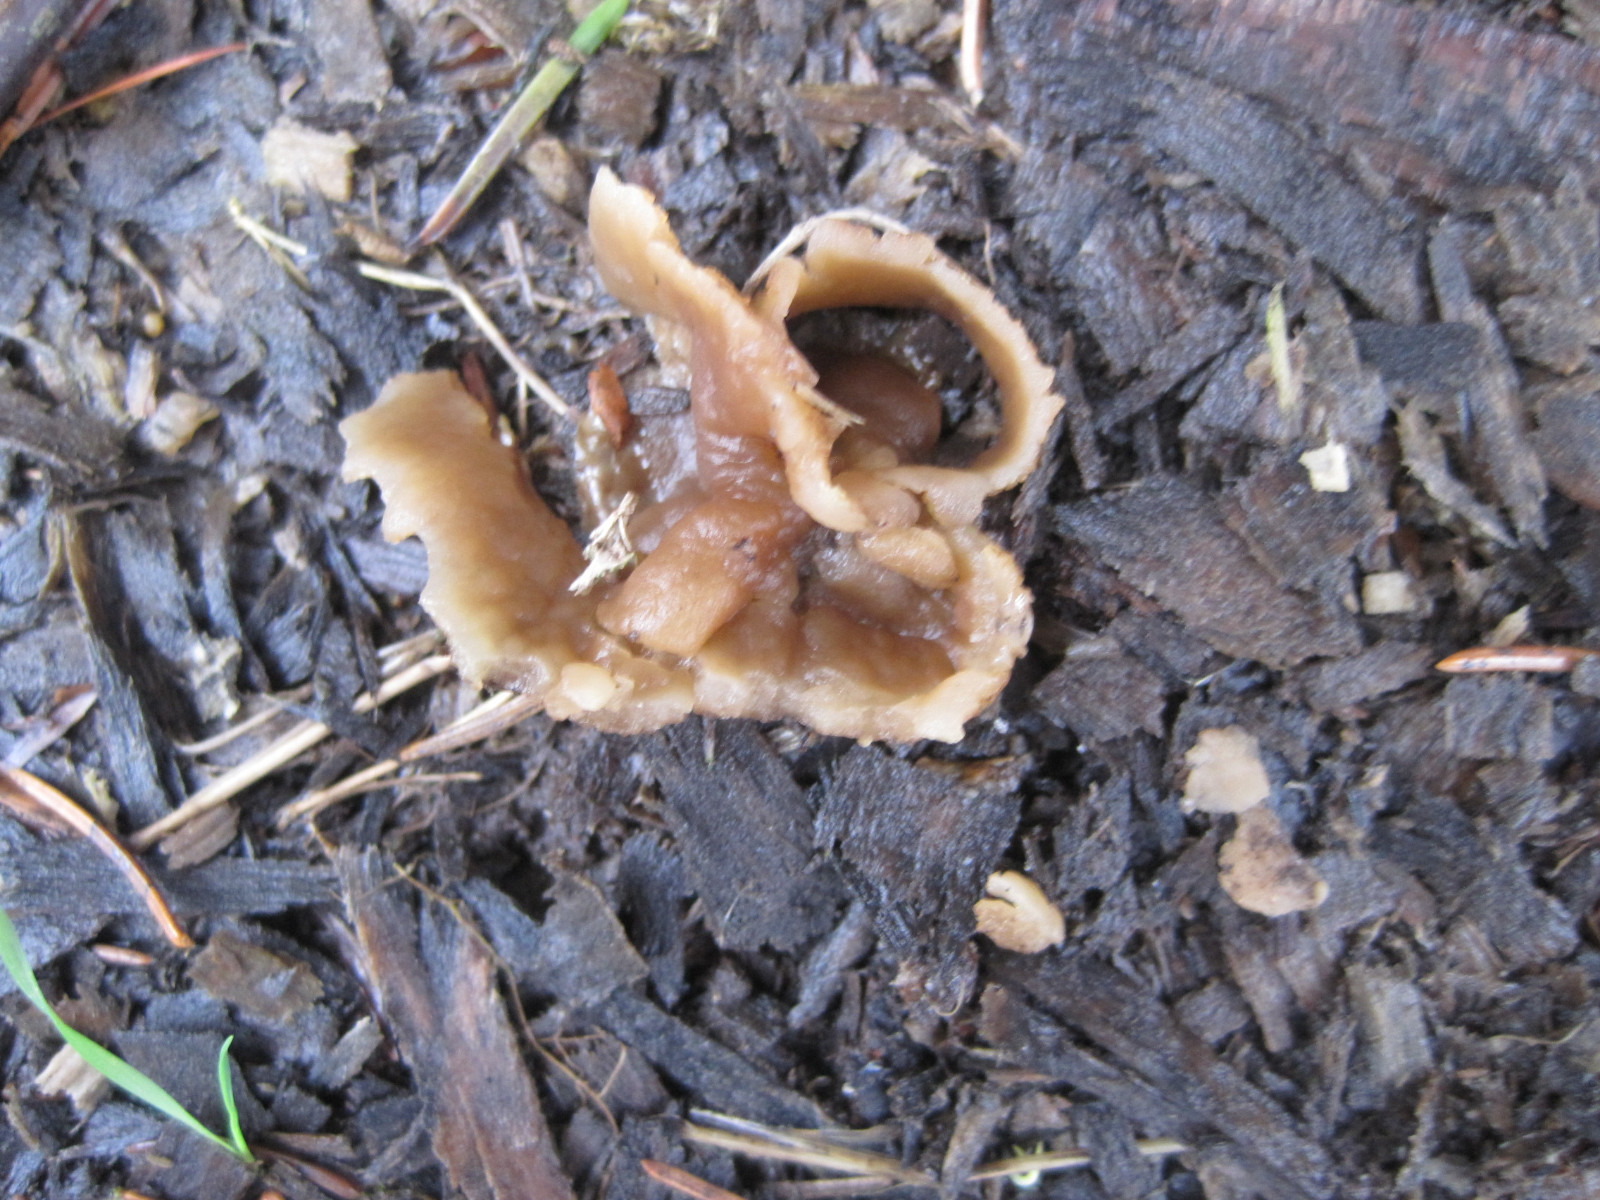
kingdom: Fungi
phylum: Ascomycota
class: Pezizomycetes
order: Pezizales
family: Pezizaceae
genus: Peziza
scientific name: Peziza varia
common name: Ved-bægersvamp
